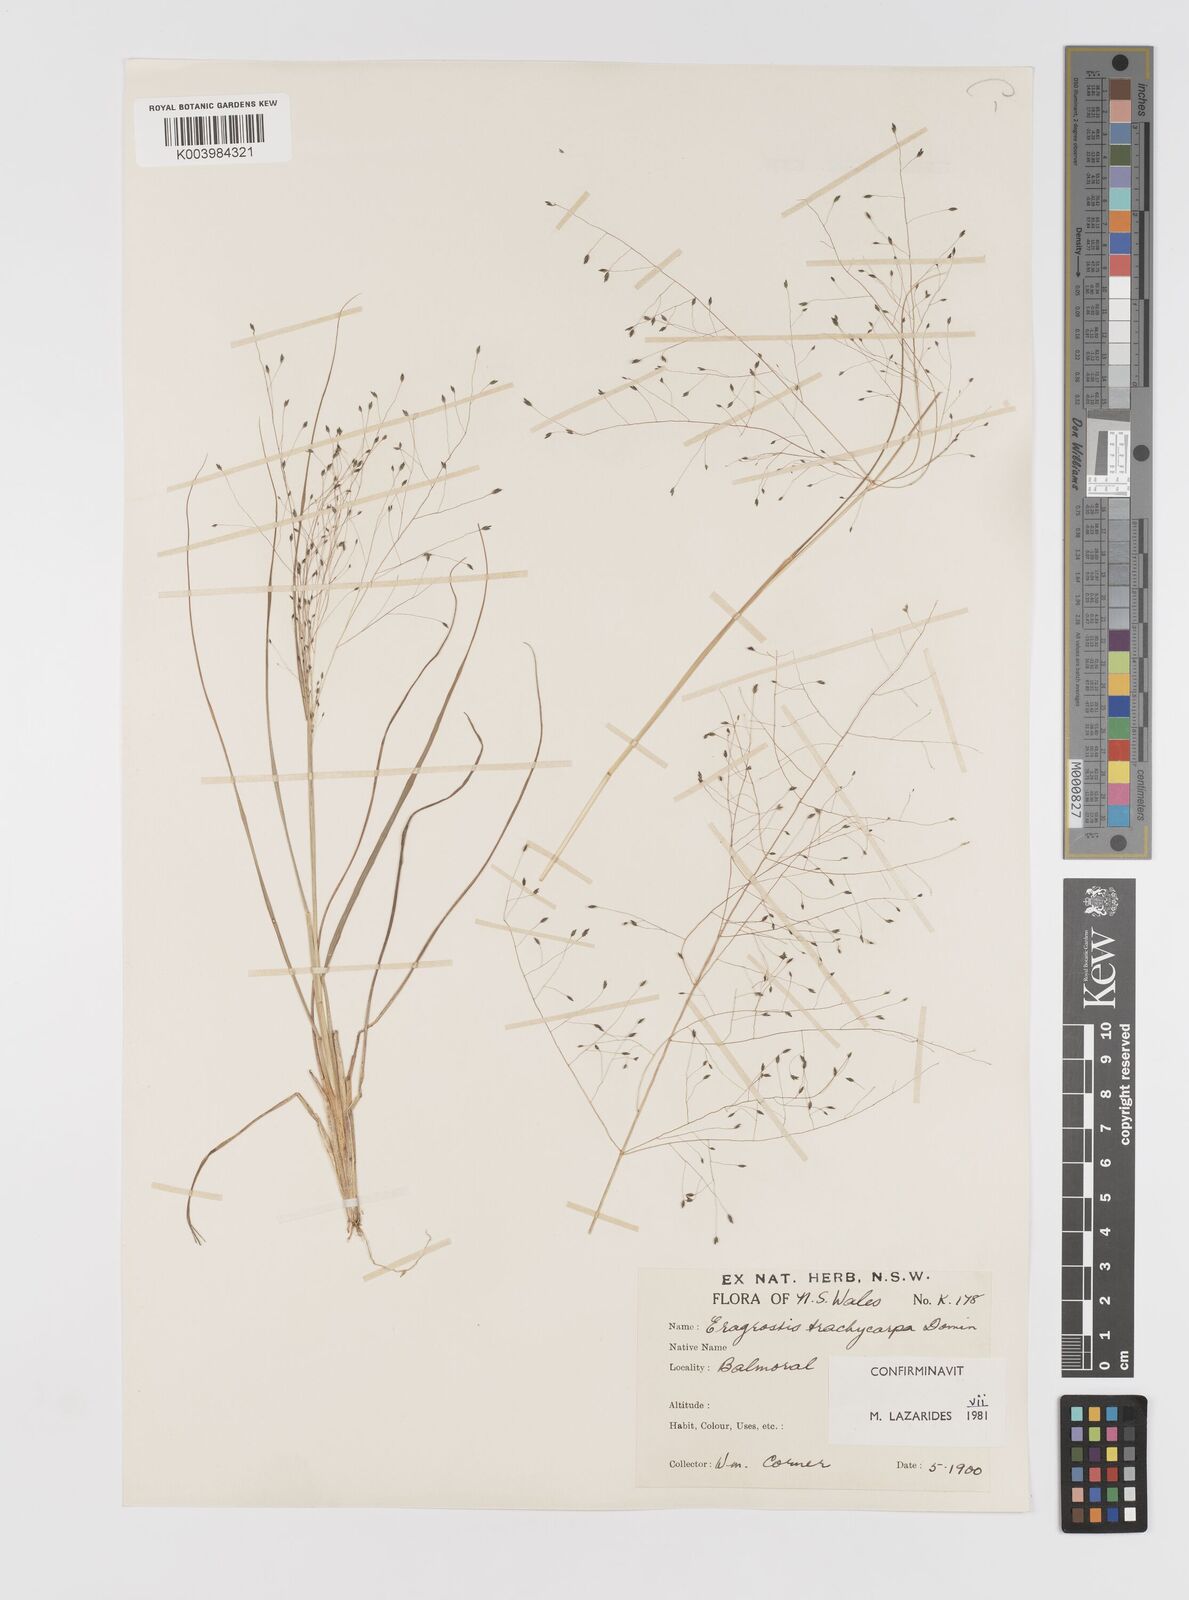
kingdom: Plantae
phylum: Tracheophyta
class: Liliopsida
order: Poales
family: Poaceae
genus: Eragrostis
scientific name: Eragrostis trachycarpa
